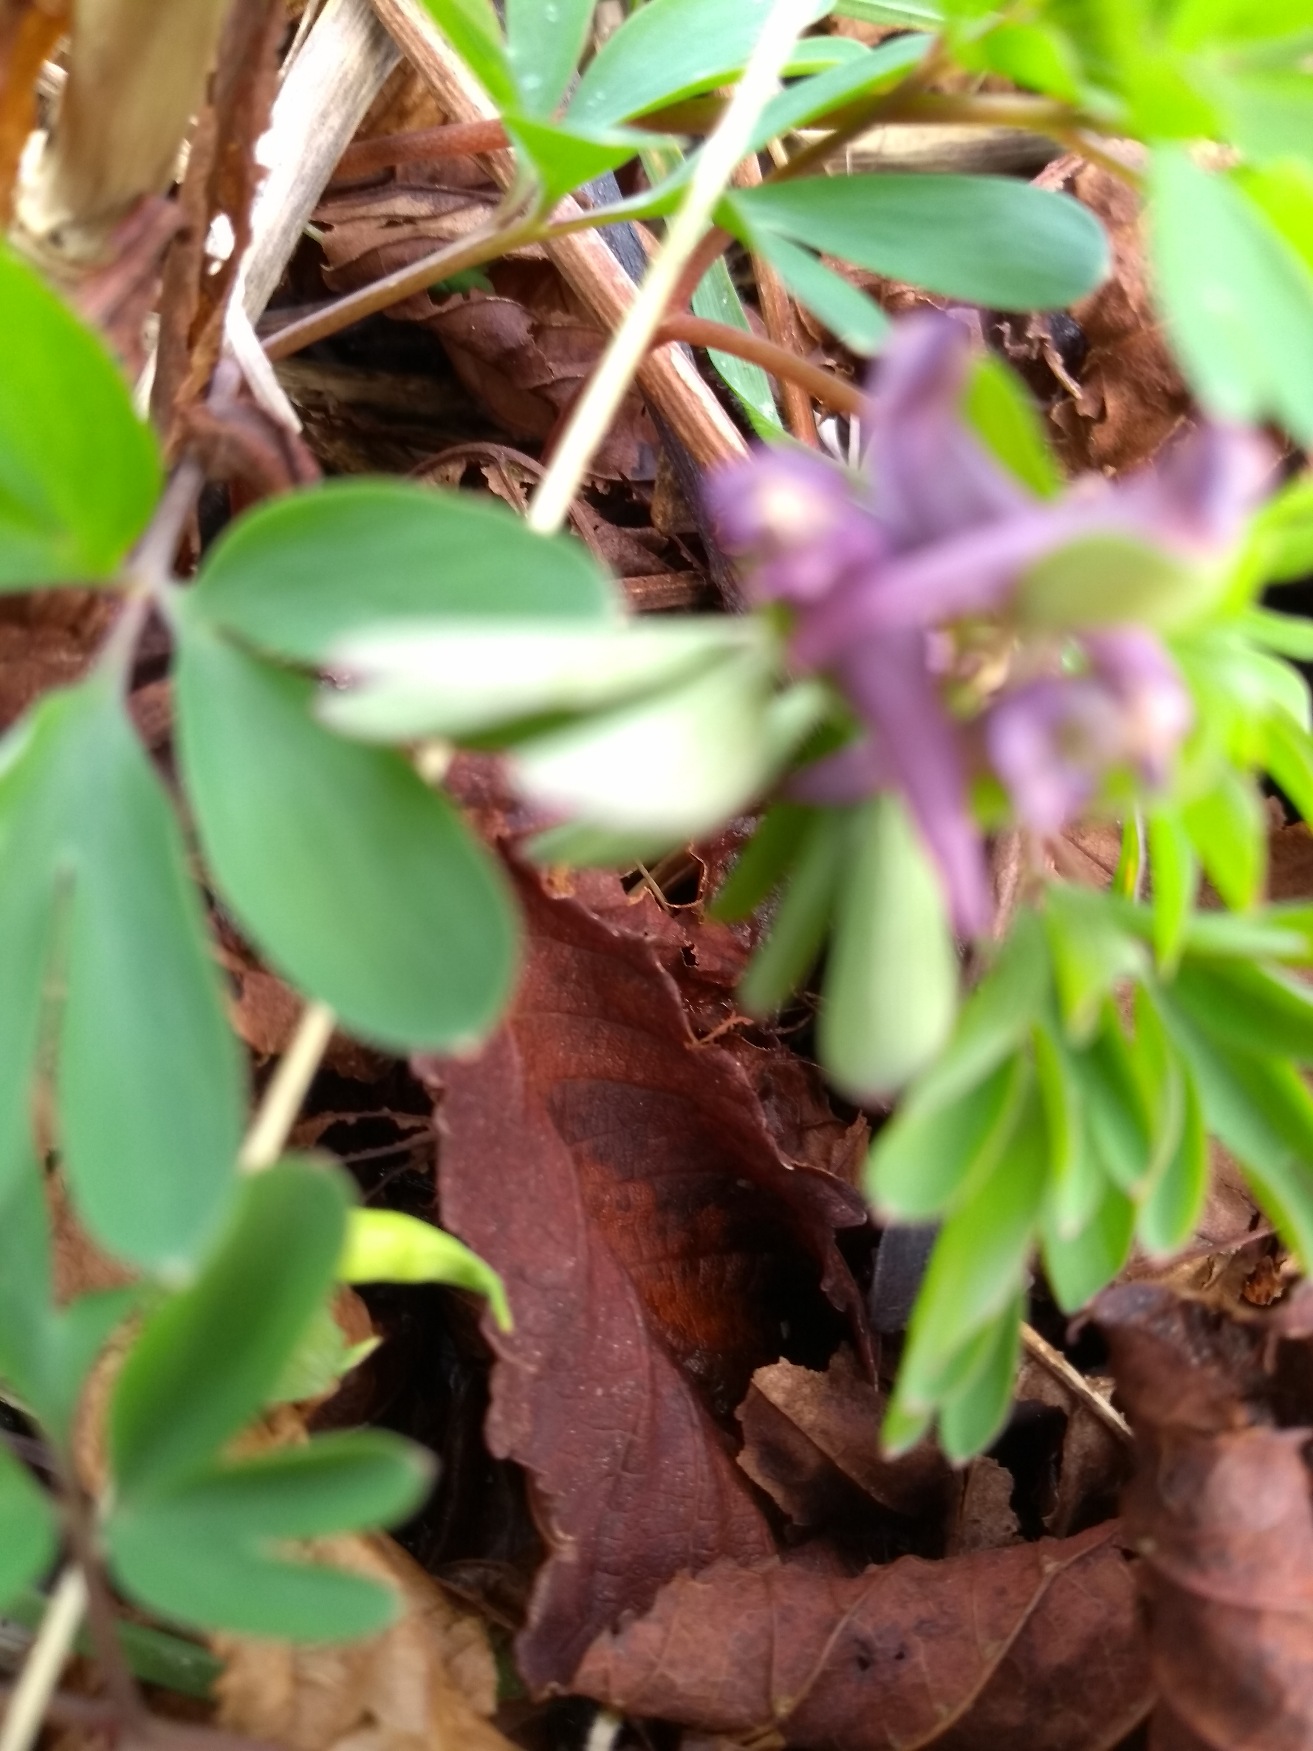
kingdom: Plantae
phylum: Tracheophyta
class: Magnoliopsida
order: Ranunculales
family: Papaveraceae
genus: Corydalis
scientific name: Corydalis intermedia
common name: Liden lærkespore
